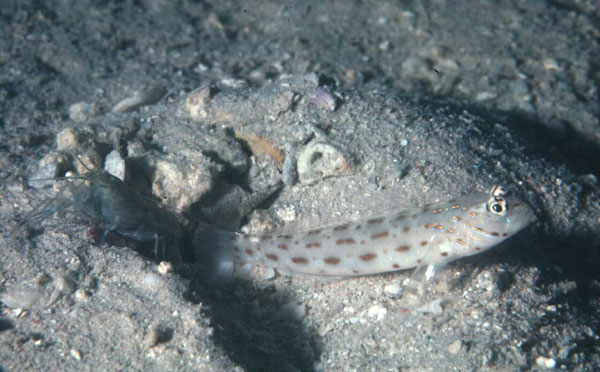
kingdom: Animalia
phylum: Chordata
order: Perciformes
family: Gobiidae
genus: Ctenogobiops
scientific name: Ctenogobiops maculosus
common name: Seychelles shrimpgoby
